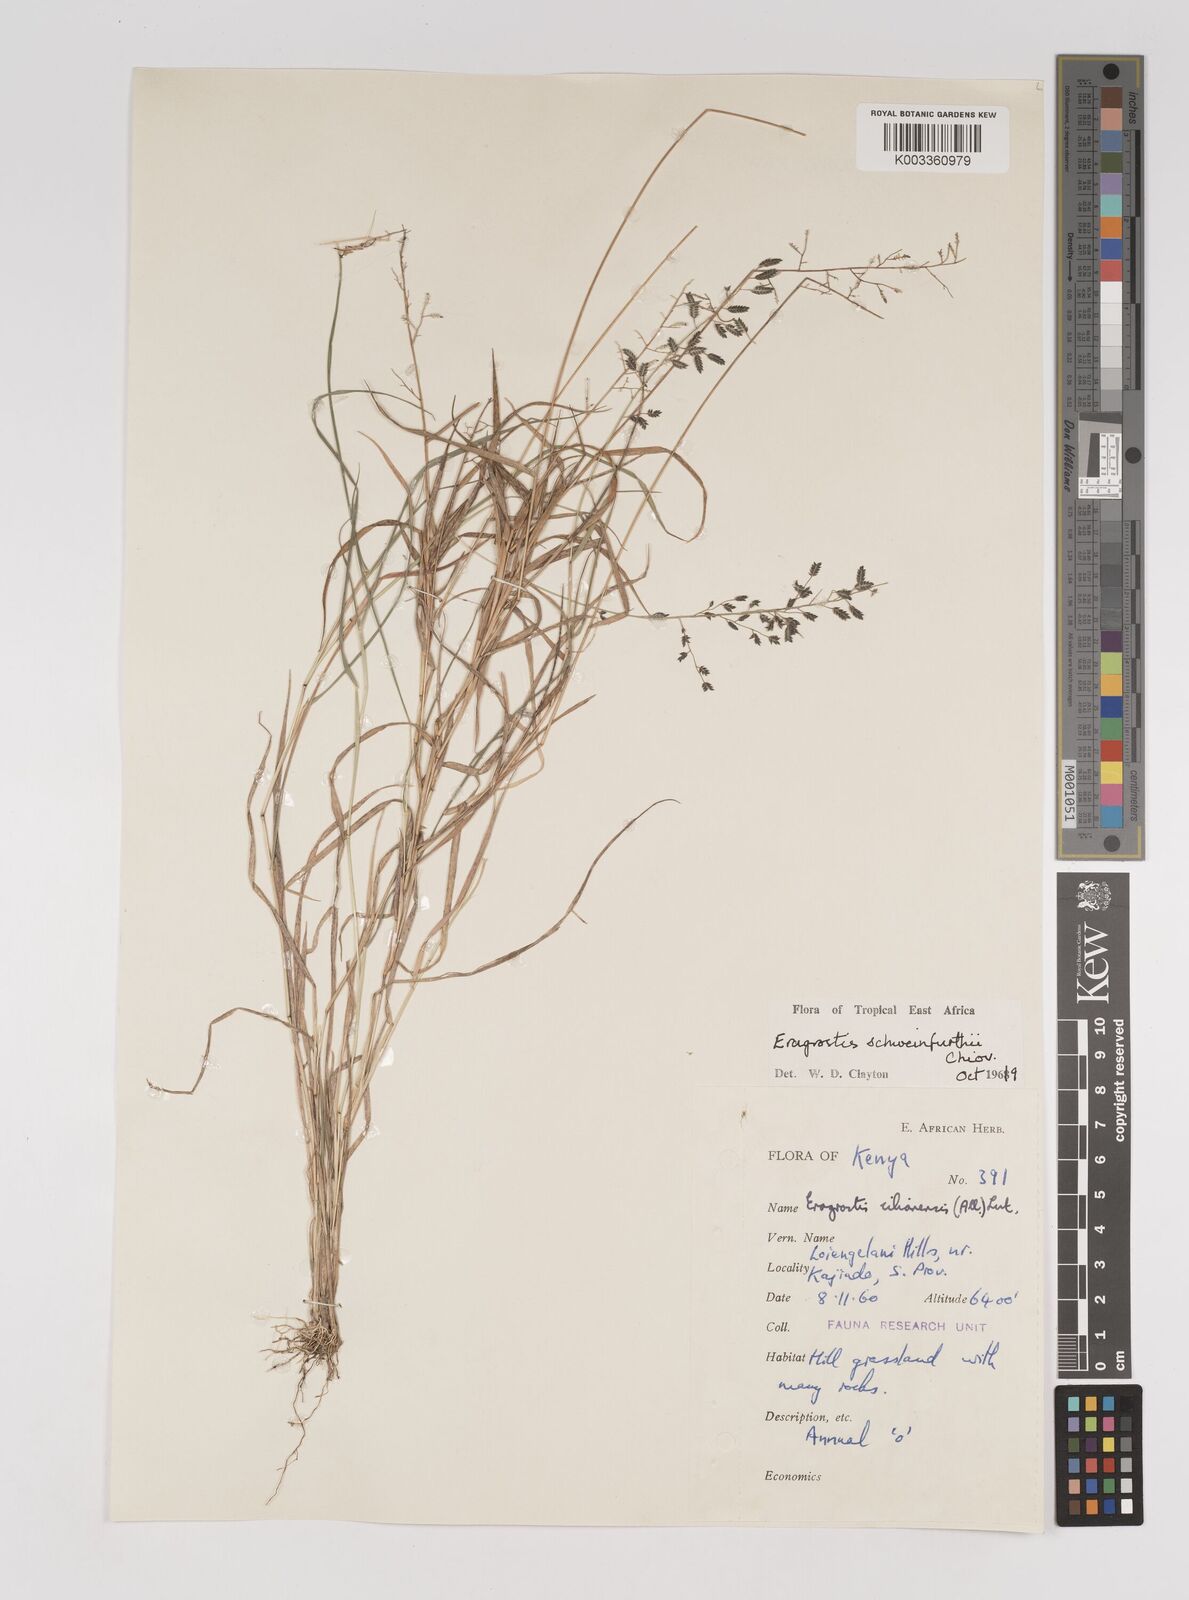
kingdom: Plantae
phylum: Tracheophyta
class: Liliopsida
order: Poales
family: Poaceae
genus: Eragrostis
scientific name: Eragrostis schweinfurthii
